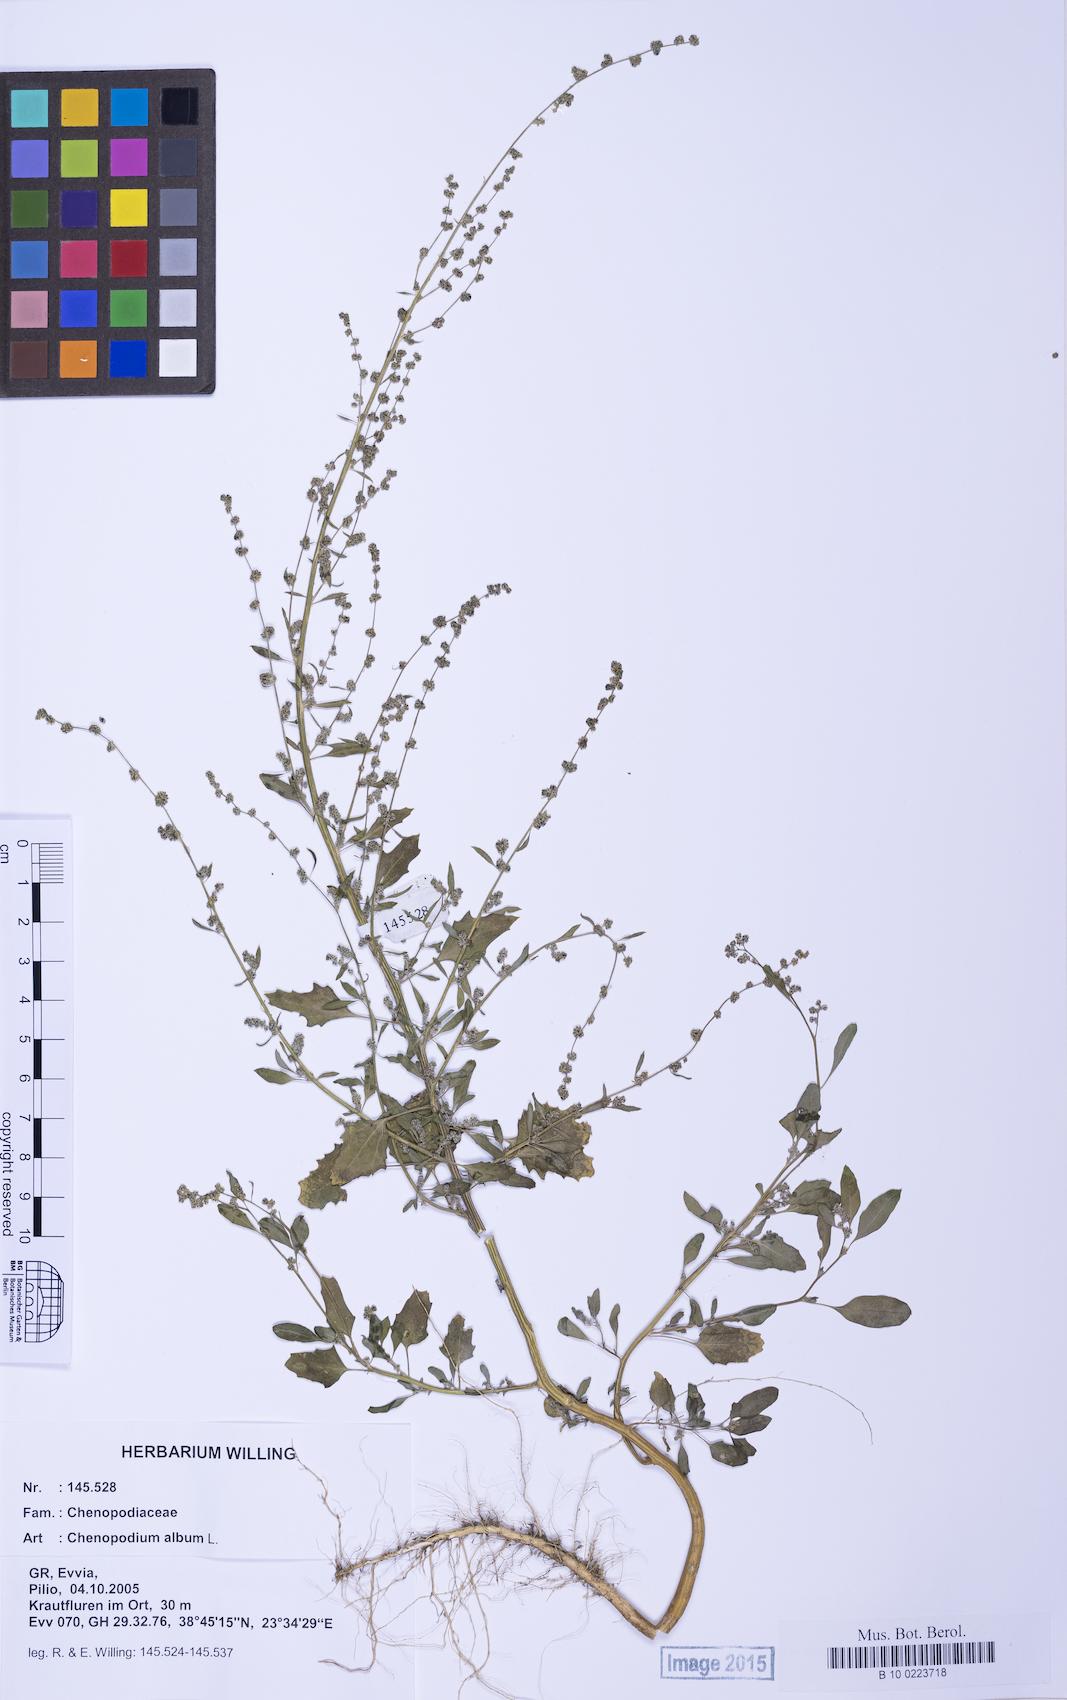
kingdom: Plantae
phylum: Tracheophyta
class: Magnoliopsida
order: Caryophyllales
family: Amaranthaceae
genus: Chenopodium
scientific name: Chenopodium striatiforme
